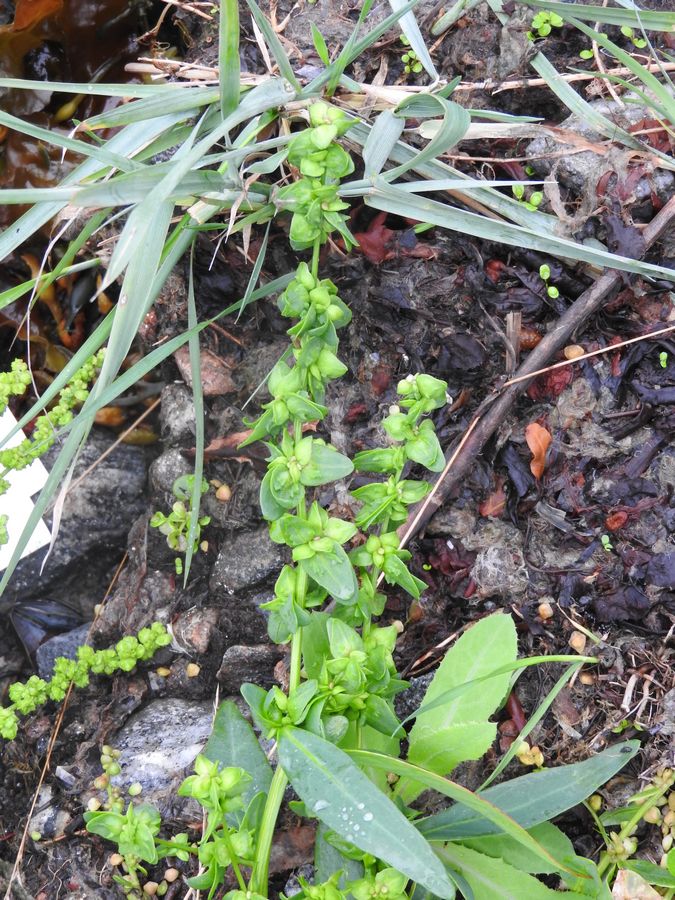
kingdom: Plantae
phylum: Tracheophyta
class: Magnoliopsida
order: Caryophyllales
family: Amaranthaceae
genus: Atriplex
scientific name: Atriplex nudicaulis
